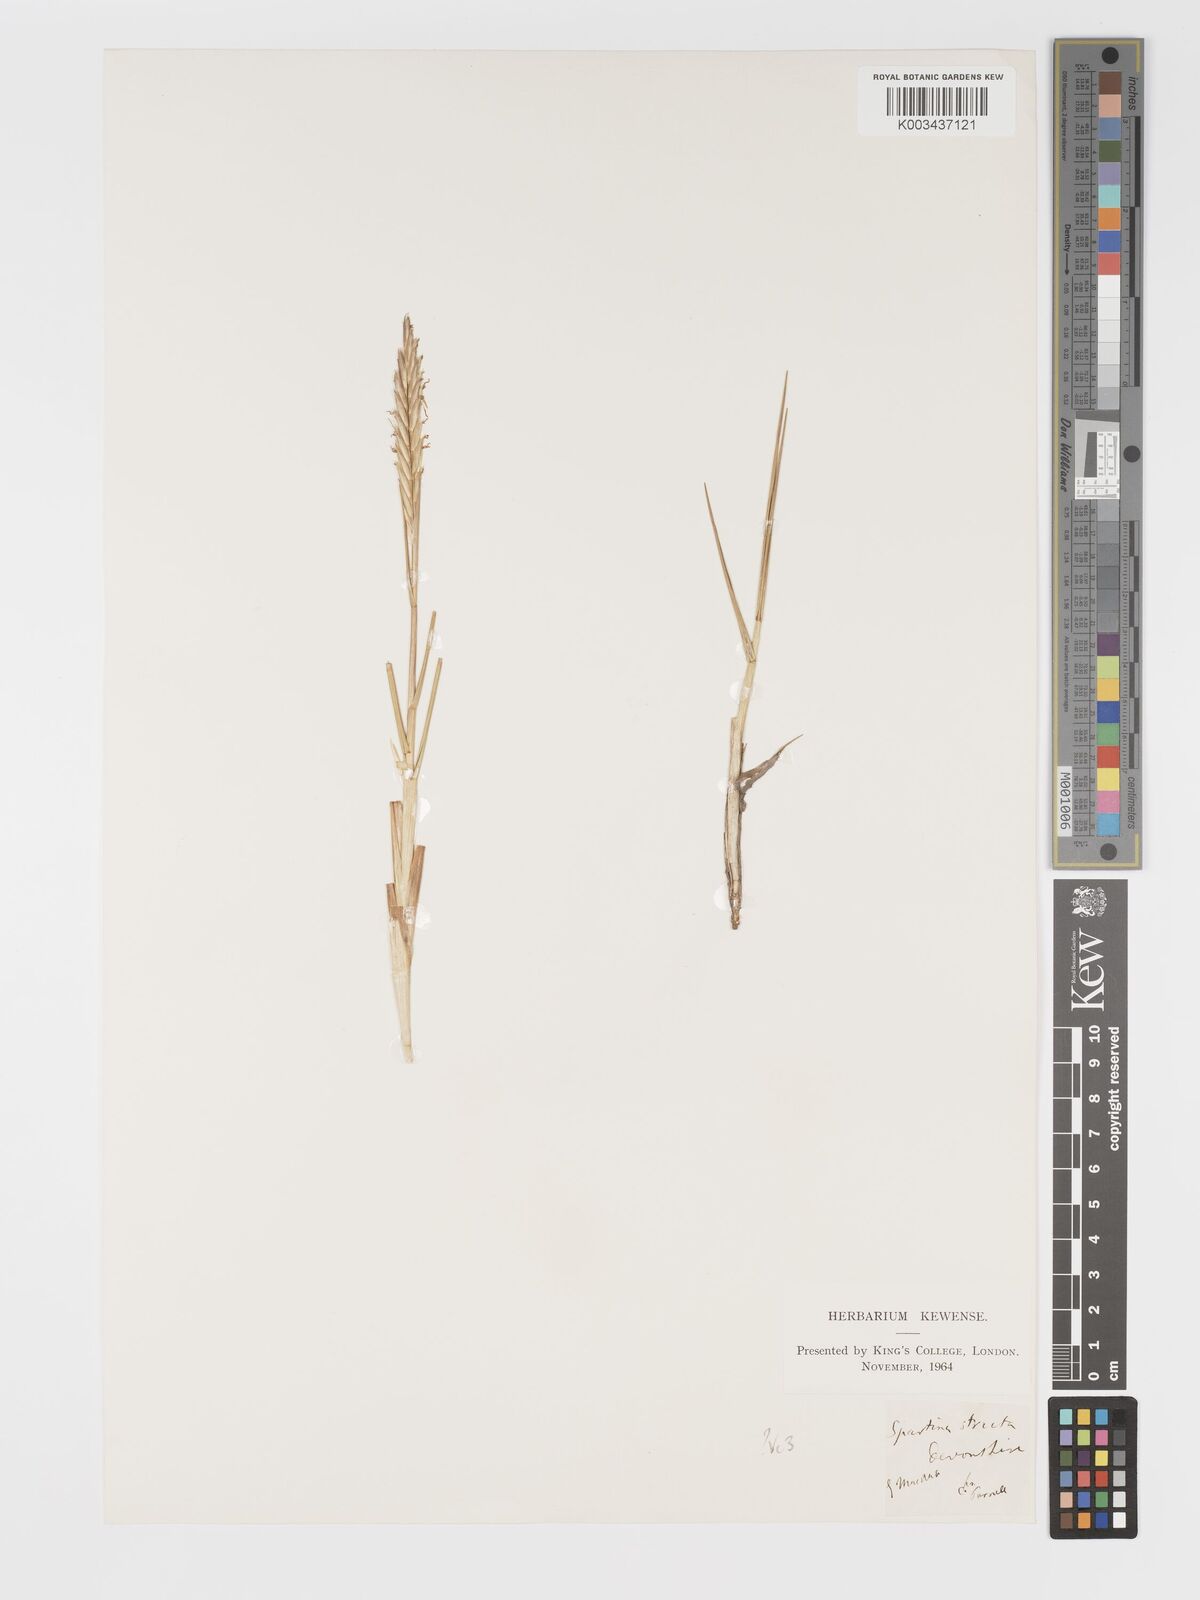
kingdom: Plantae
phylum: Tracheophyta
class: Liliopsida
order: Poales
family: Poaceae
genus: Sporobolus
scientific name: Sporobolus maritimus
